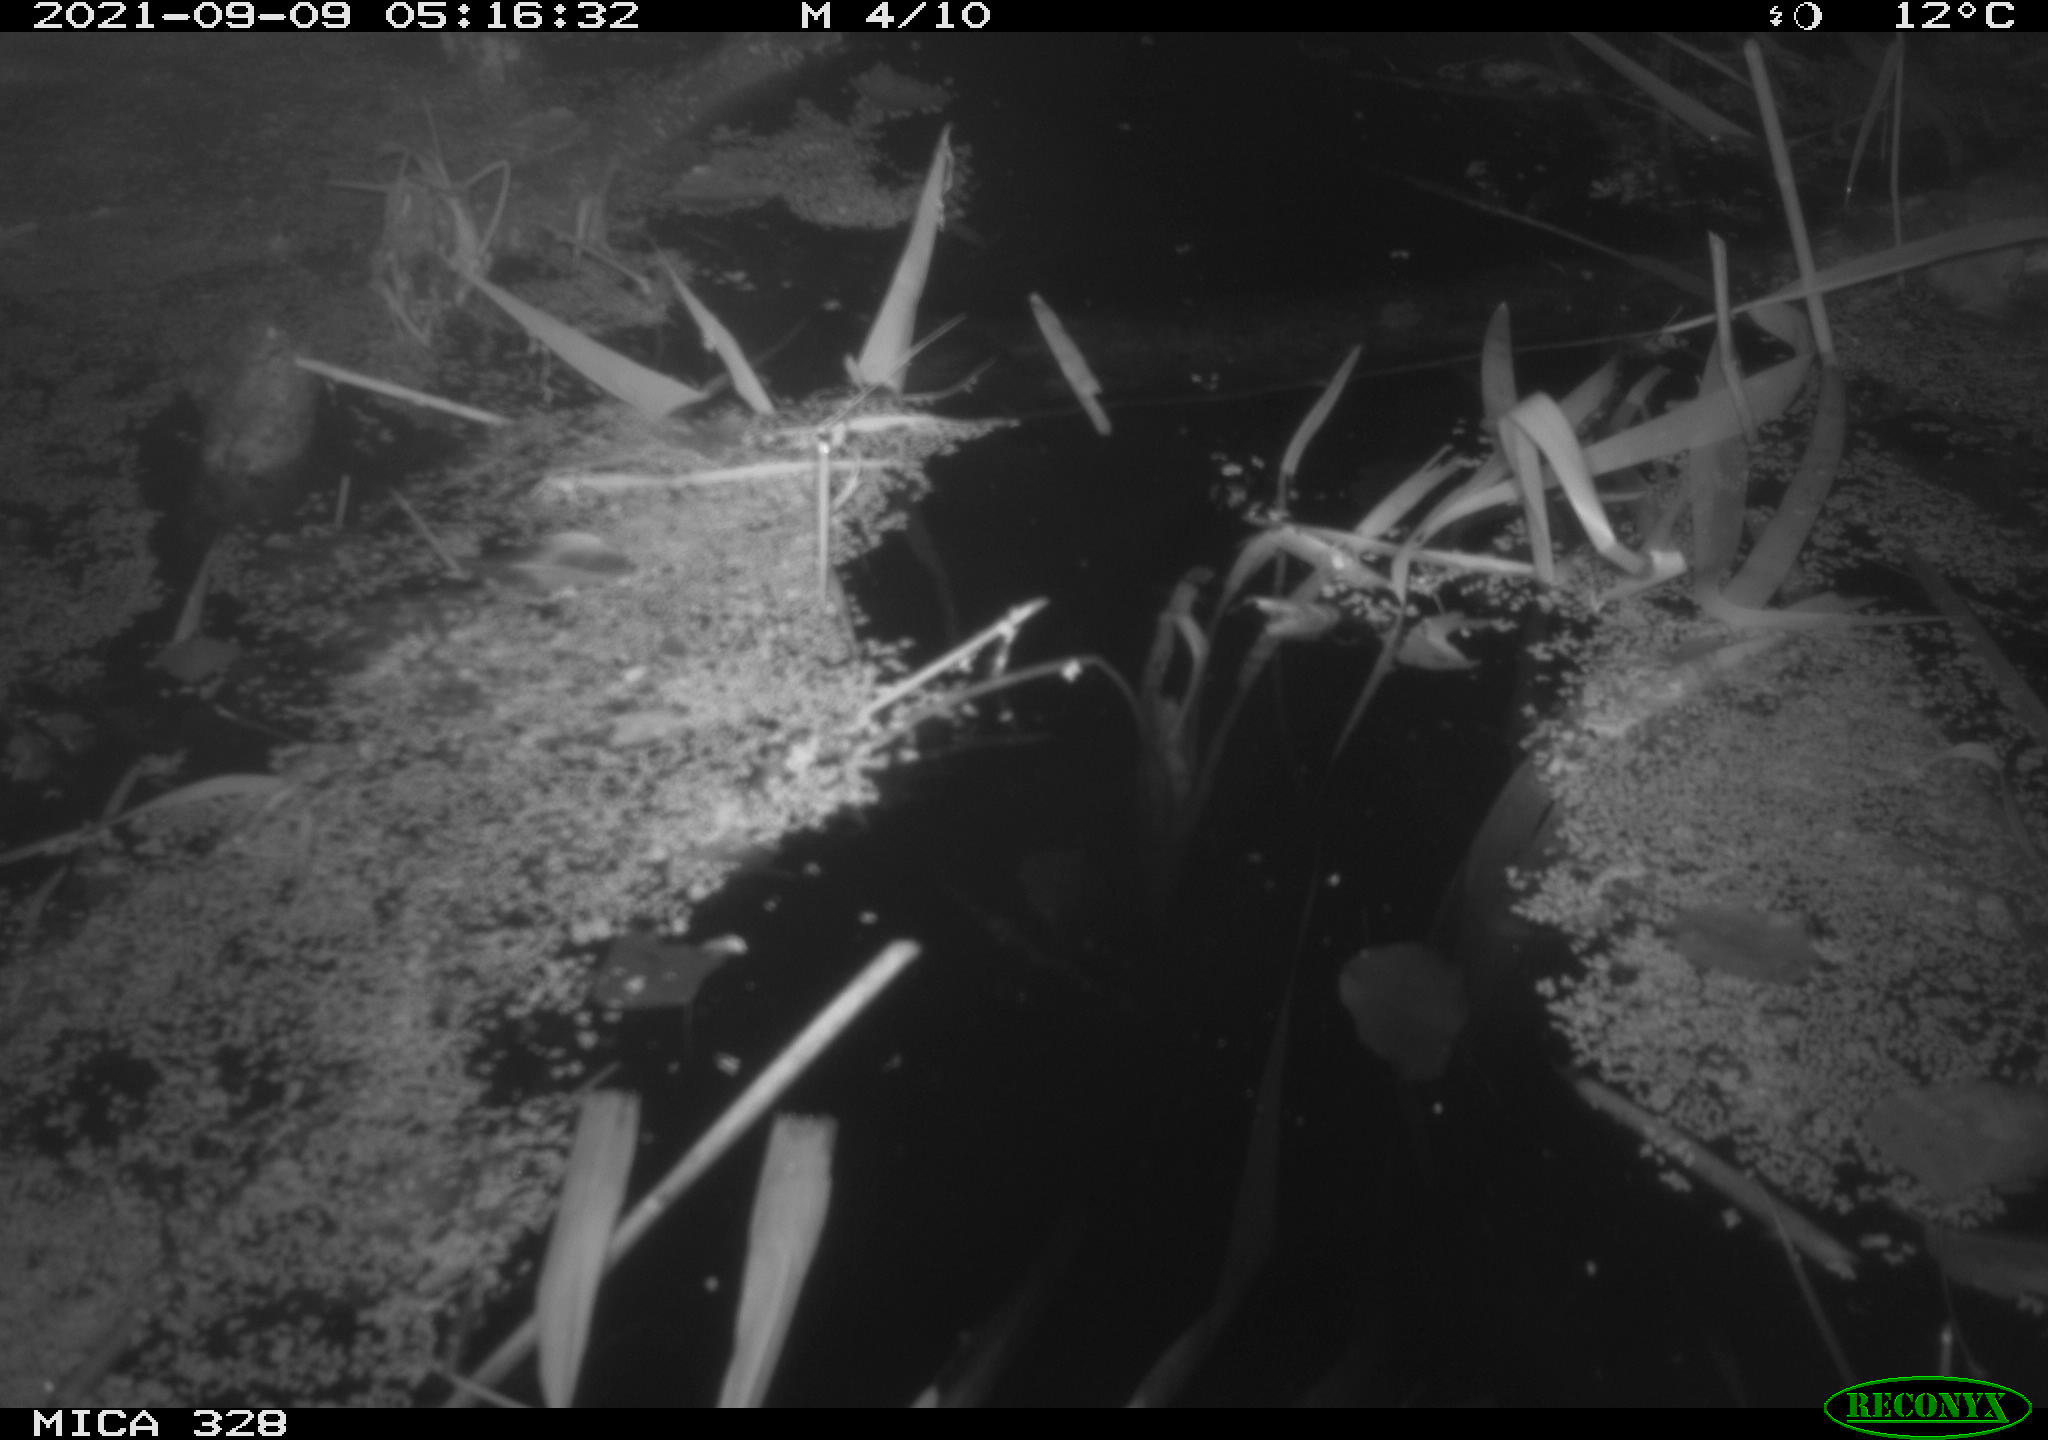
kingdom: Animalia
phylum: Chordata
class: Mammalia
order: Rodentia
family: Cricetidae
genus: Ondatra
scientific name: Ondatra zibethicus
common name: Muskrat
